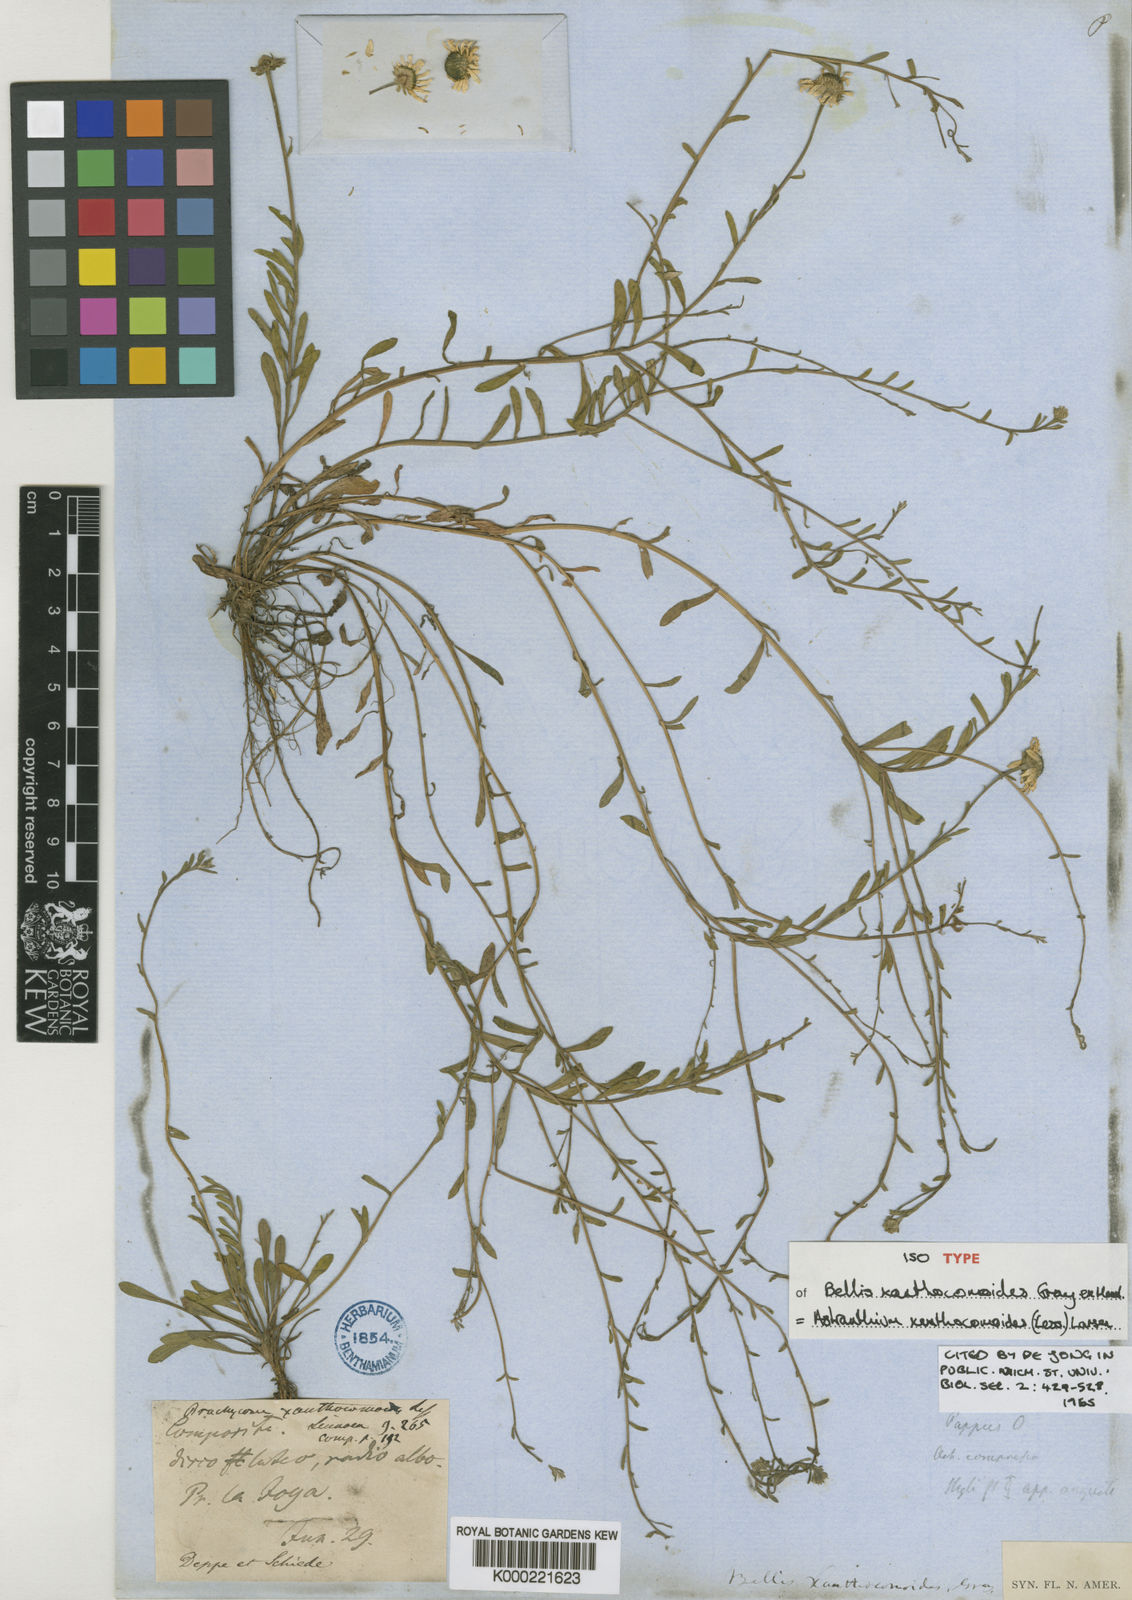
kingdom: Plantae
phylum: Tracheophyta
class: Magnoliopsida
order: Asterales
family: Asteraceae
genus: Astranthium
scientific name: Astranthium xanthocomoides
